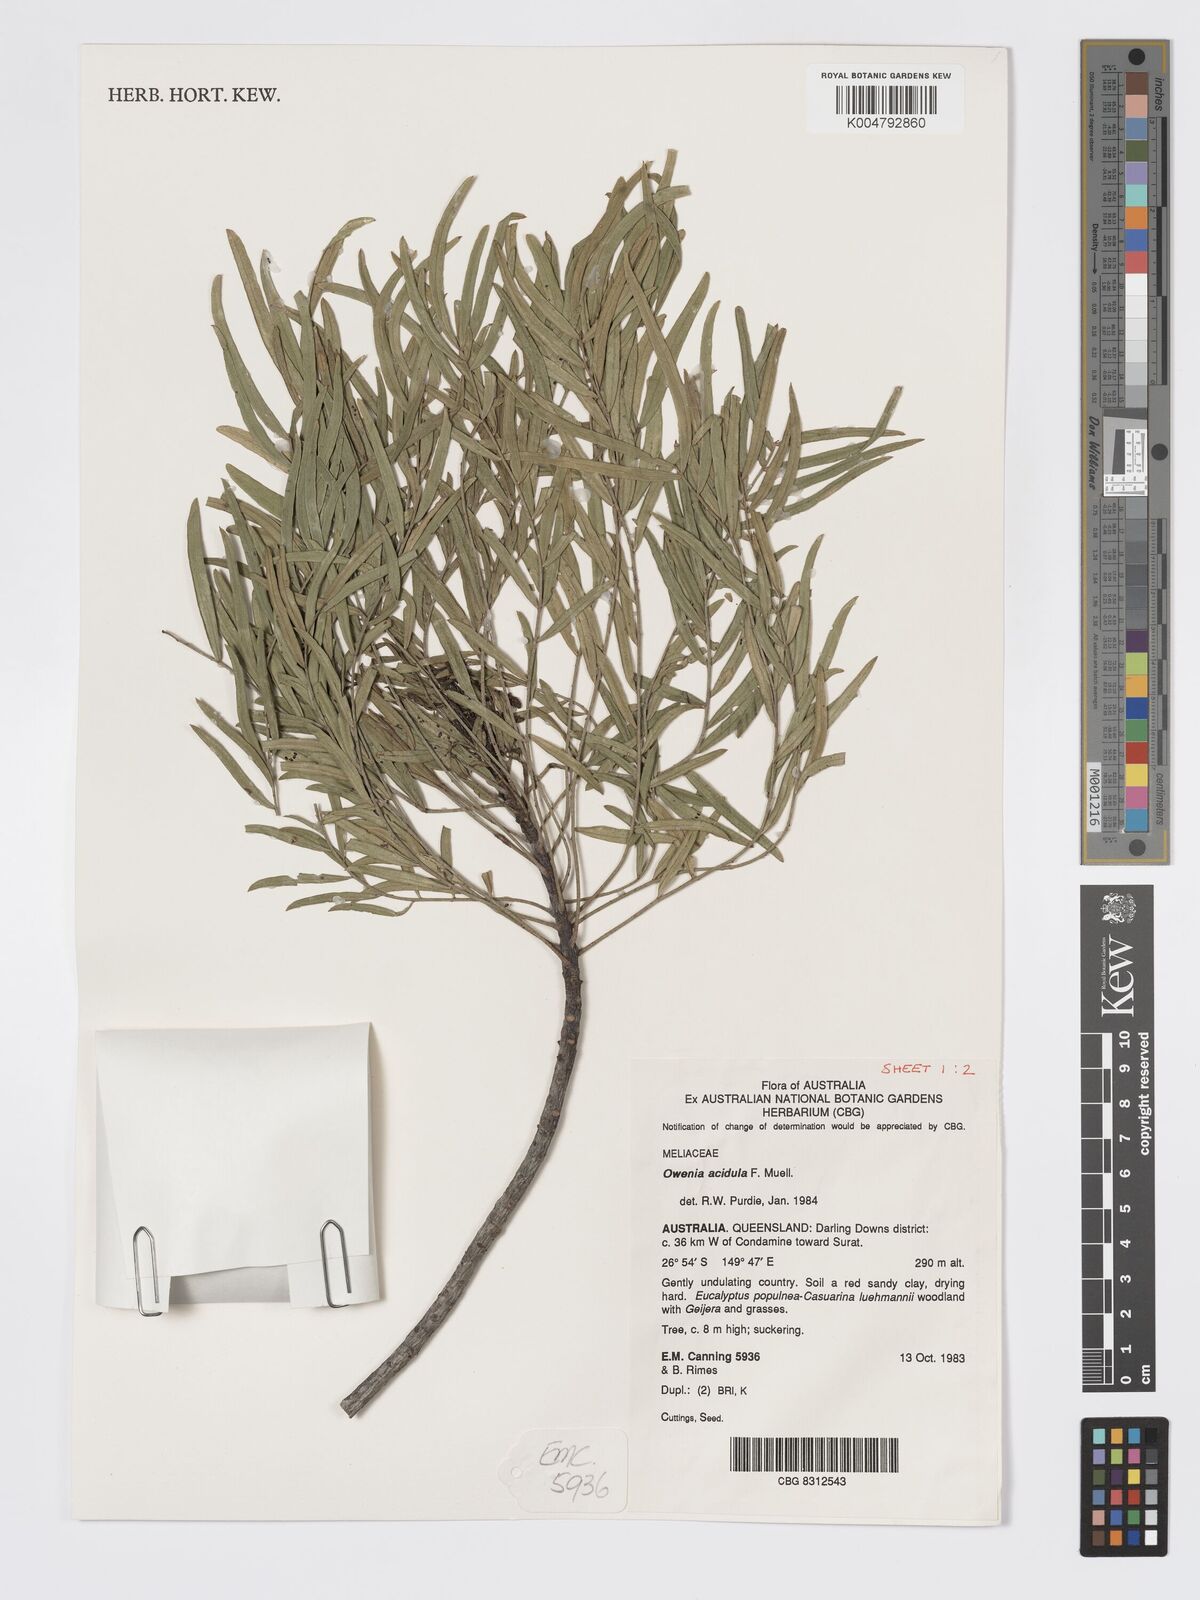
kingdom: Plantae
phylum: Tracheophyta
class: Magnoliopsida
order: Sapindales
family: Meliaceae
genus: Owenia
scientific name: Owenia acidula
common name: Tulipwood
